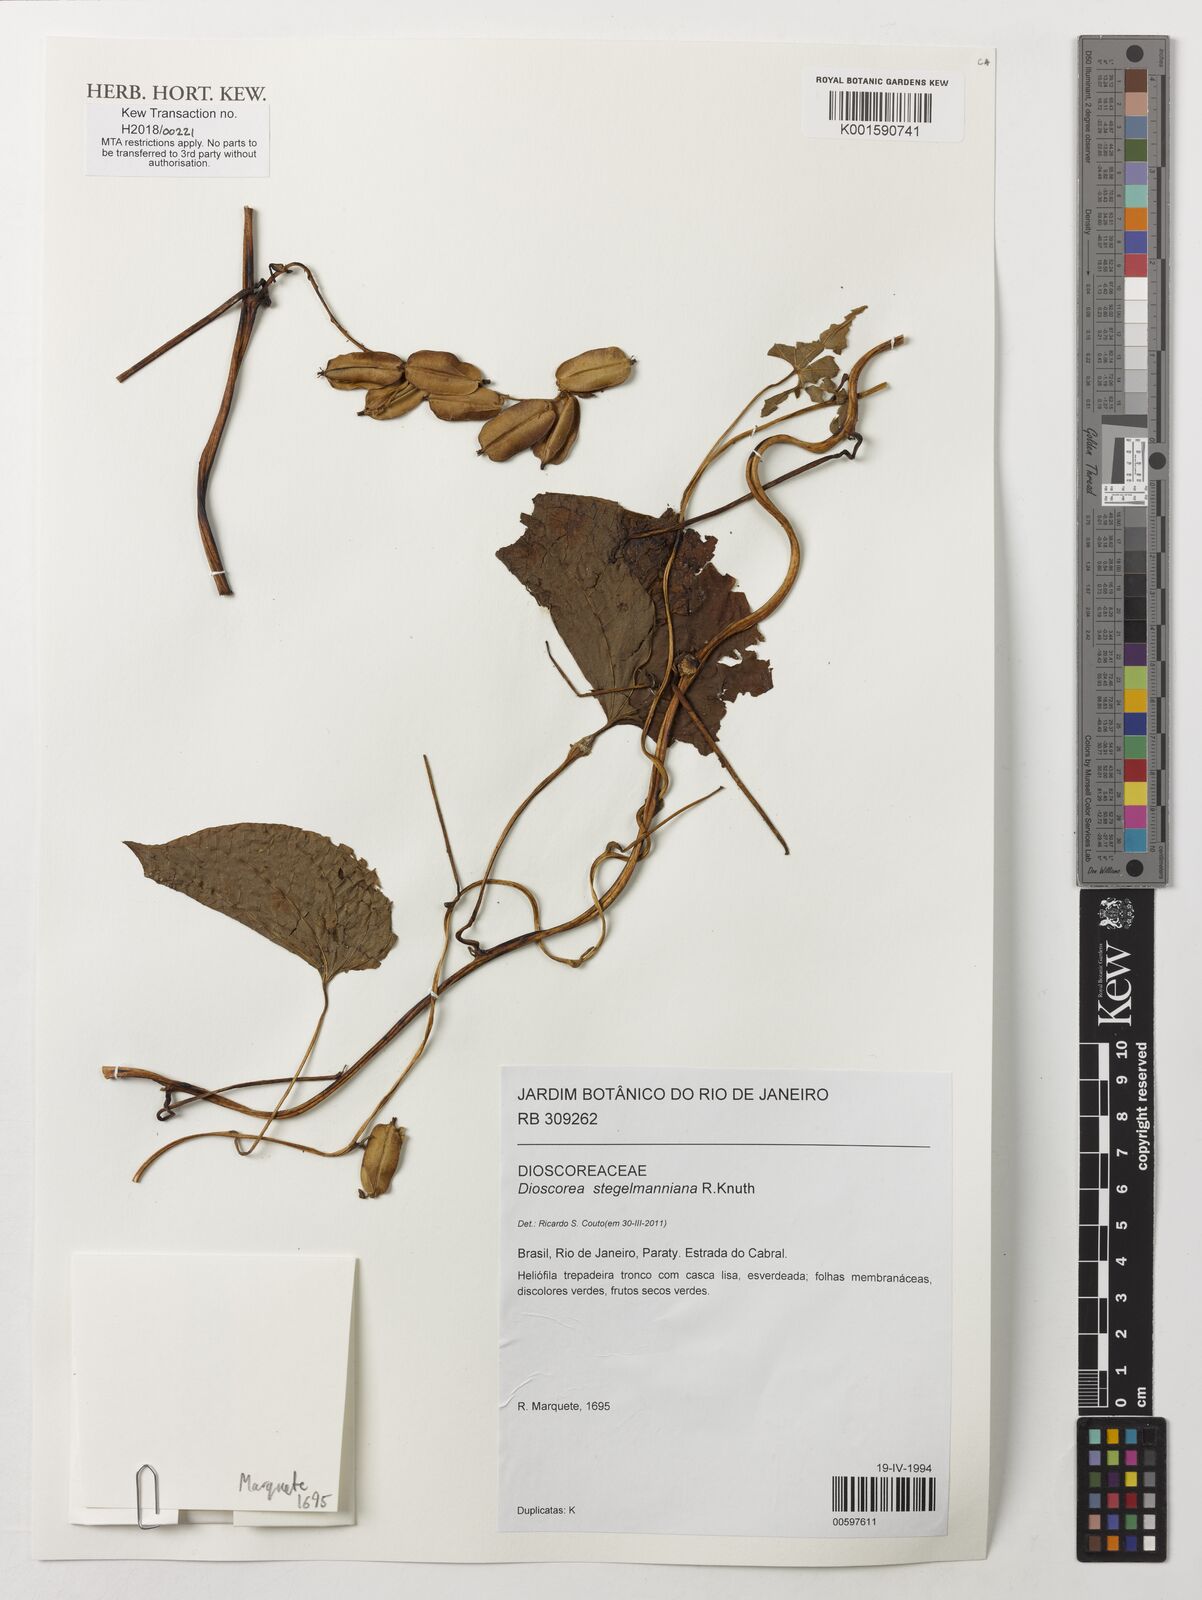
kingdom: Plantae
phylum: Tracheophyta
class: Liliopsida
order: Dioscoreales
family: Dioscoreaceae
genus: Dioscorea
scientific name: Dioscorea stegelmanniana
